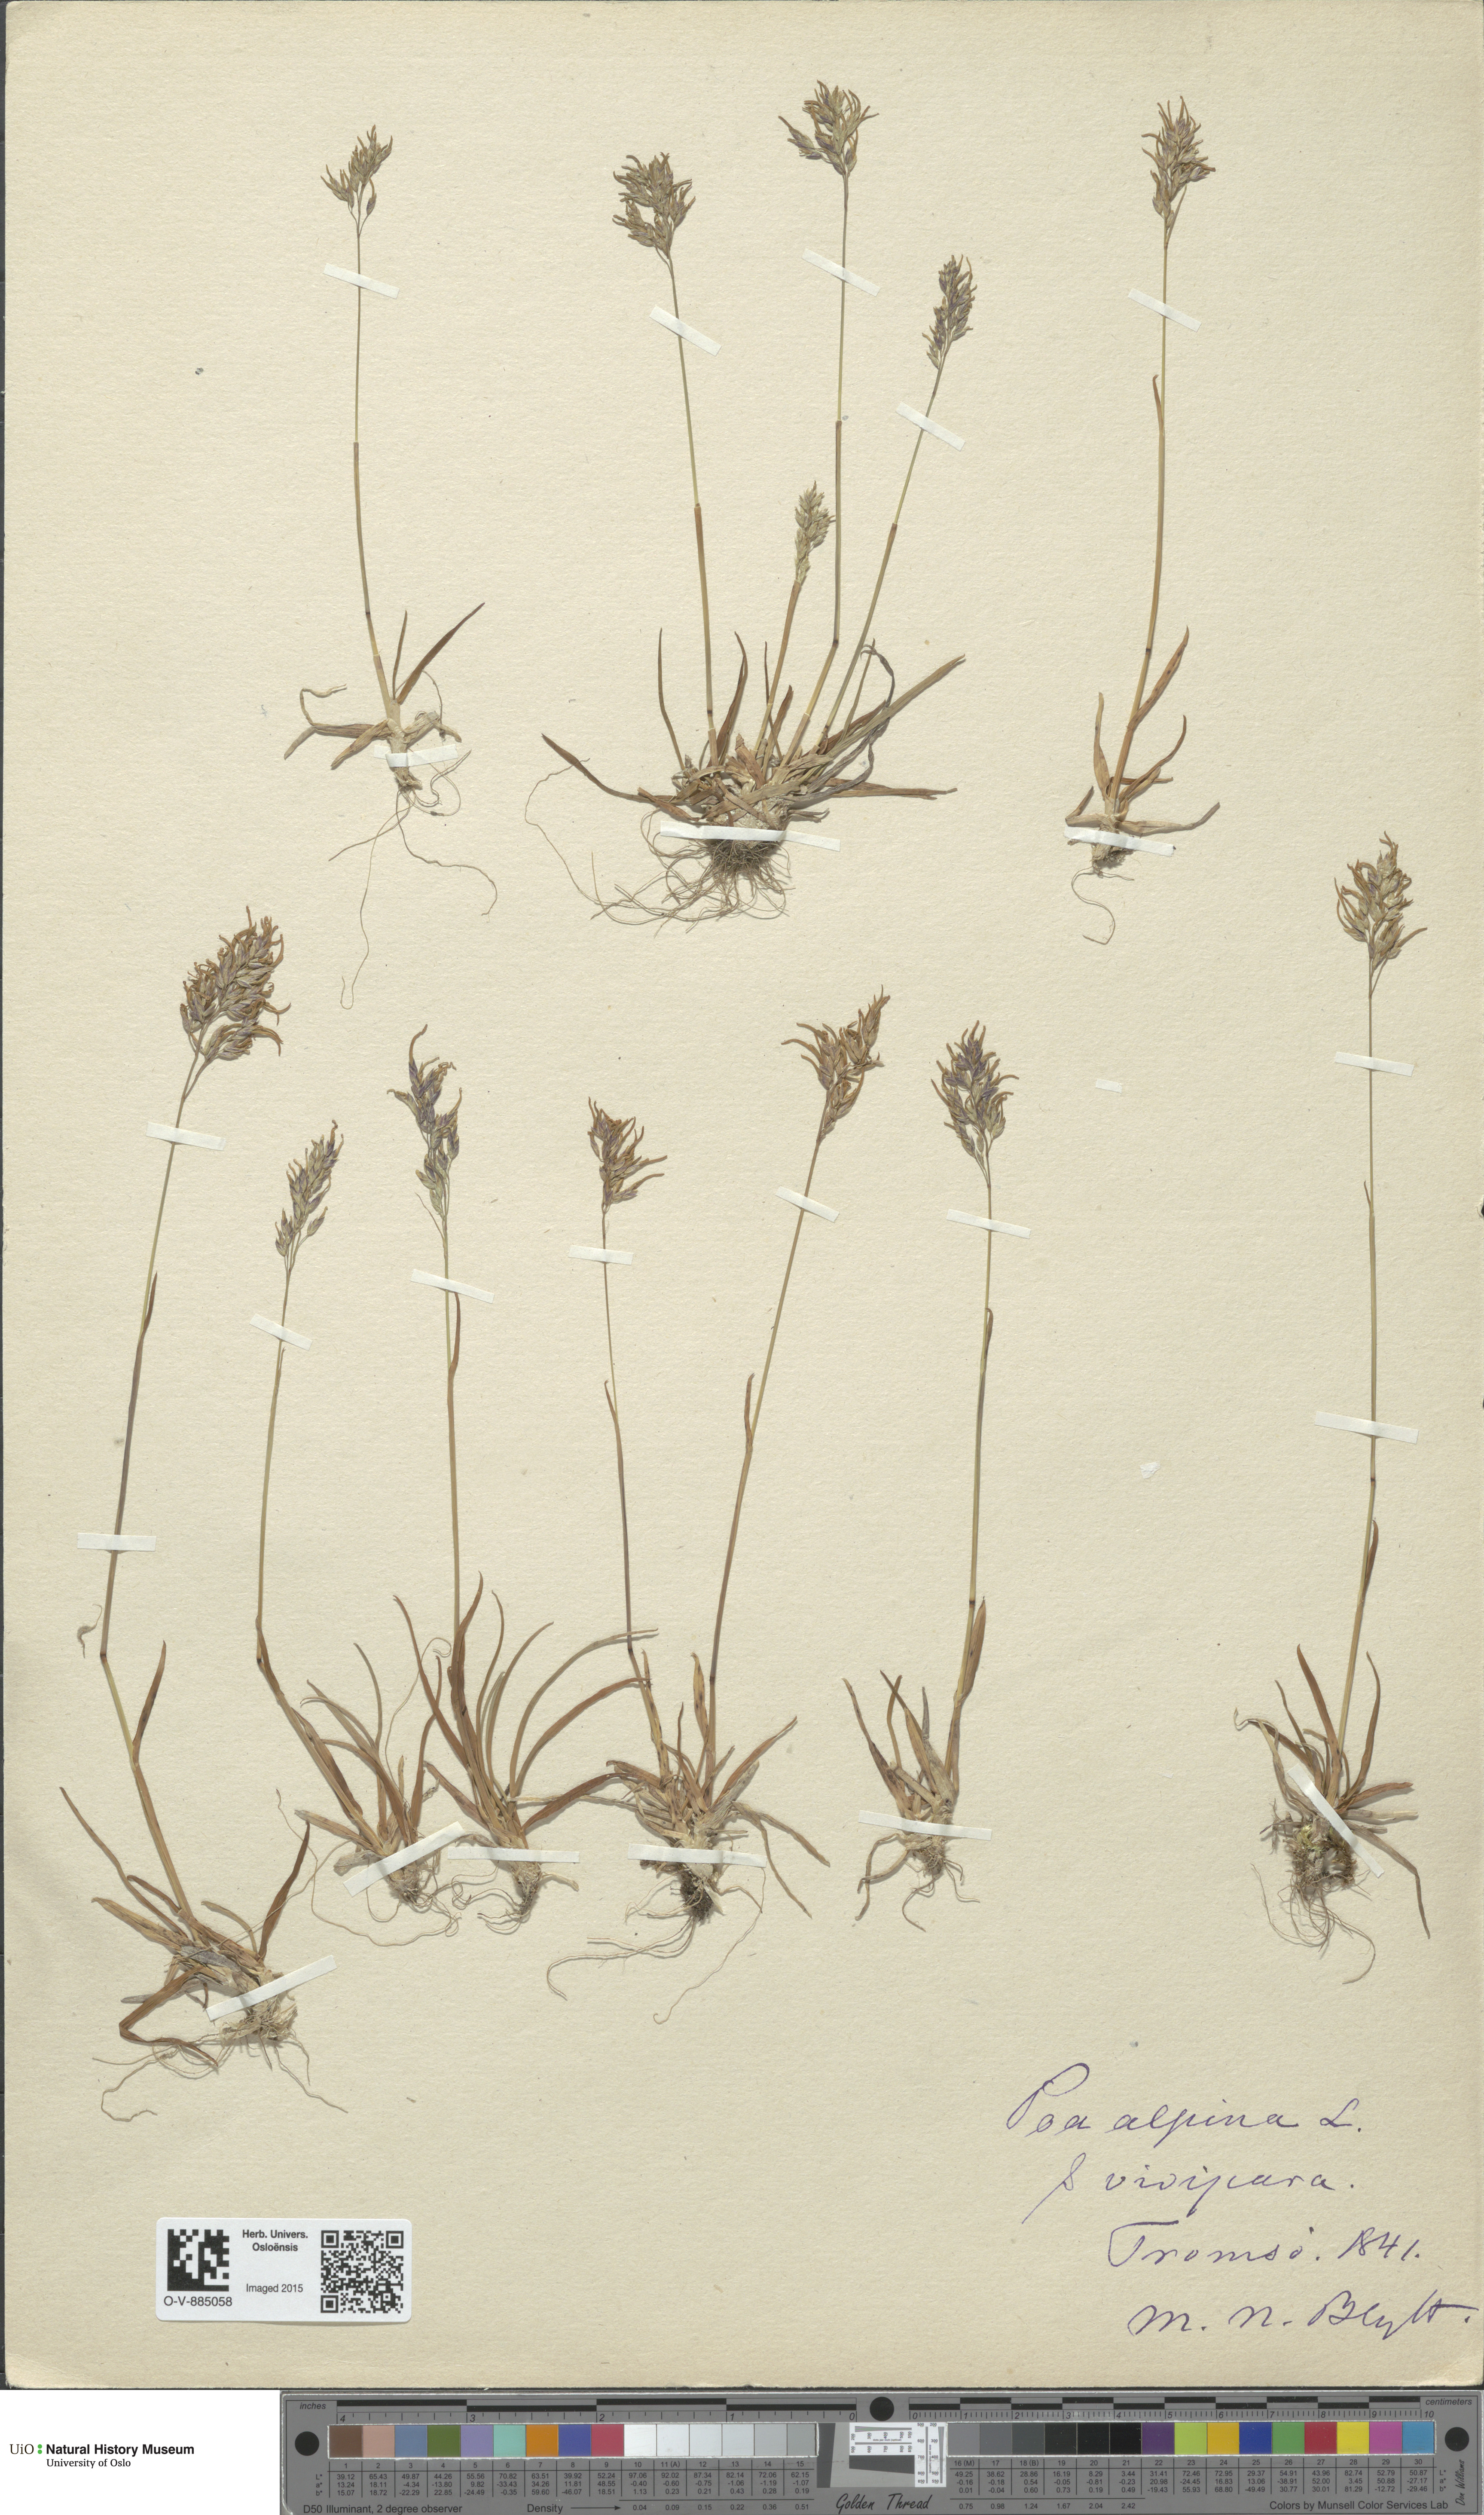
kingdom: Plantae
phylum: Tracheophyta
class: Liliopsida
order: Poales
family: Poaceae
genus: Poa
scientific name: Poa alpina
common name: Alpine bluegrass
